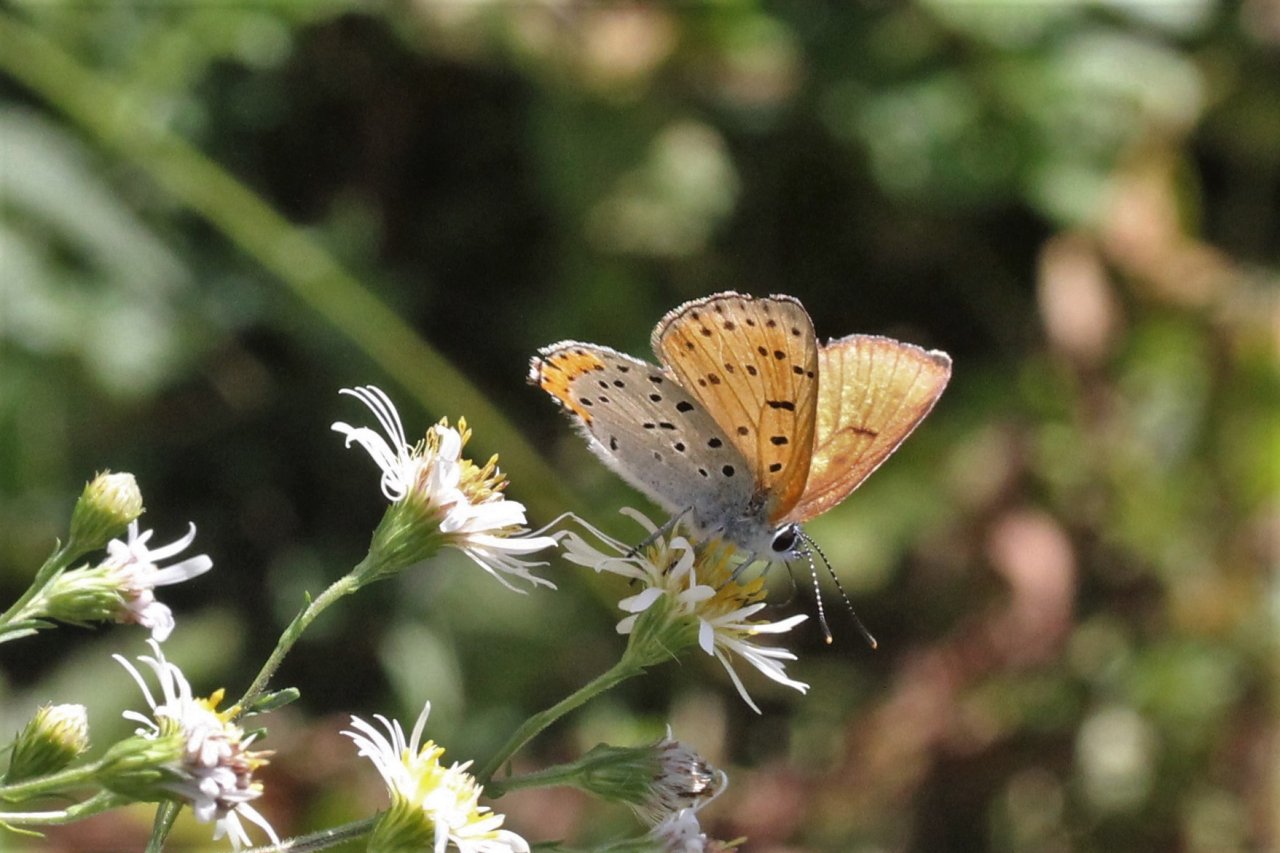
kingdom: Animalia
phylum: Arthropoda
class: Insecta
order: Lepidoptera
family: Sesiidae
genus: Sesia
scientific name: Sesia Lycaena hyllus
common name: Bronze Copper
